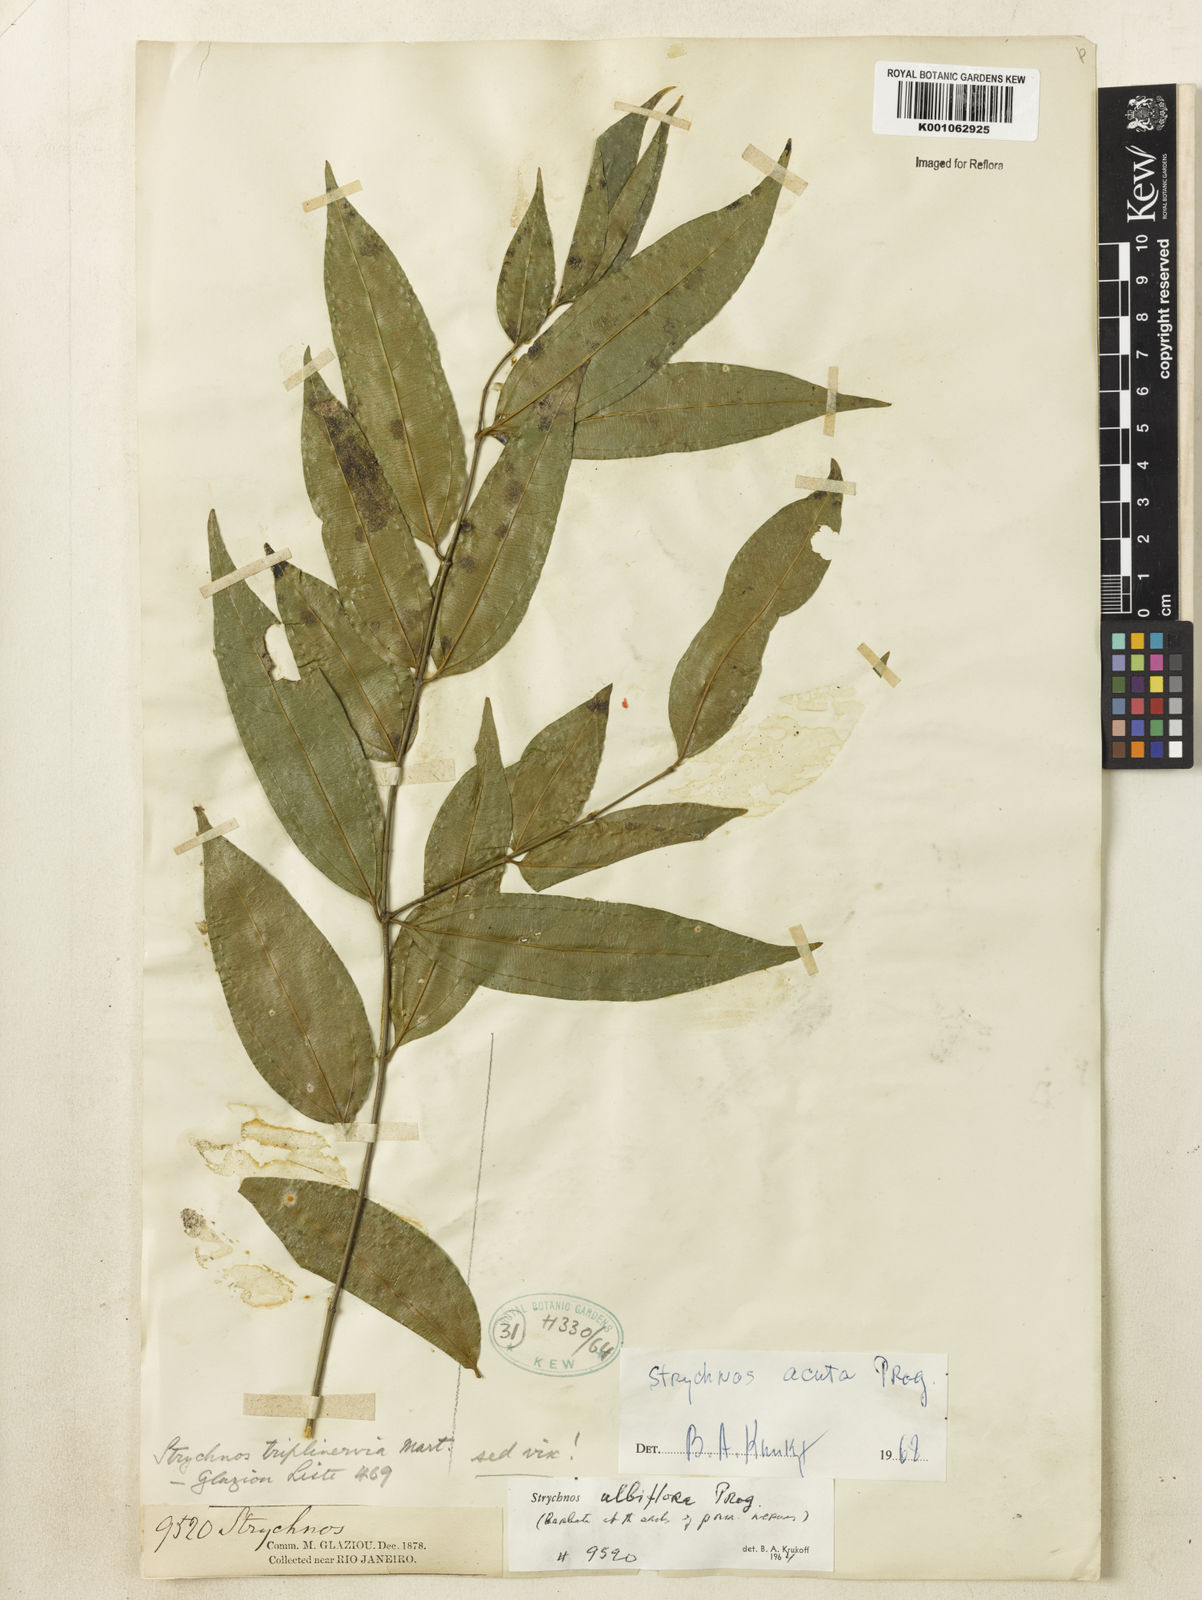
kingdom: Plantae
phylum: Tracheophyta
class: Magnoliopsida
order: Gentianales
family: Loganiaceae
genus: Strychnos
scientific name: Strychnos acuta
